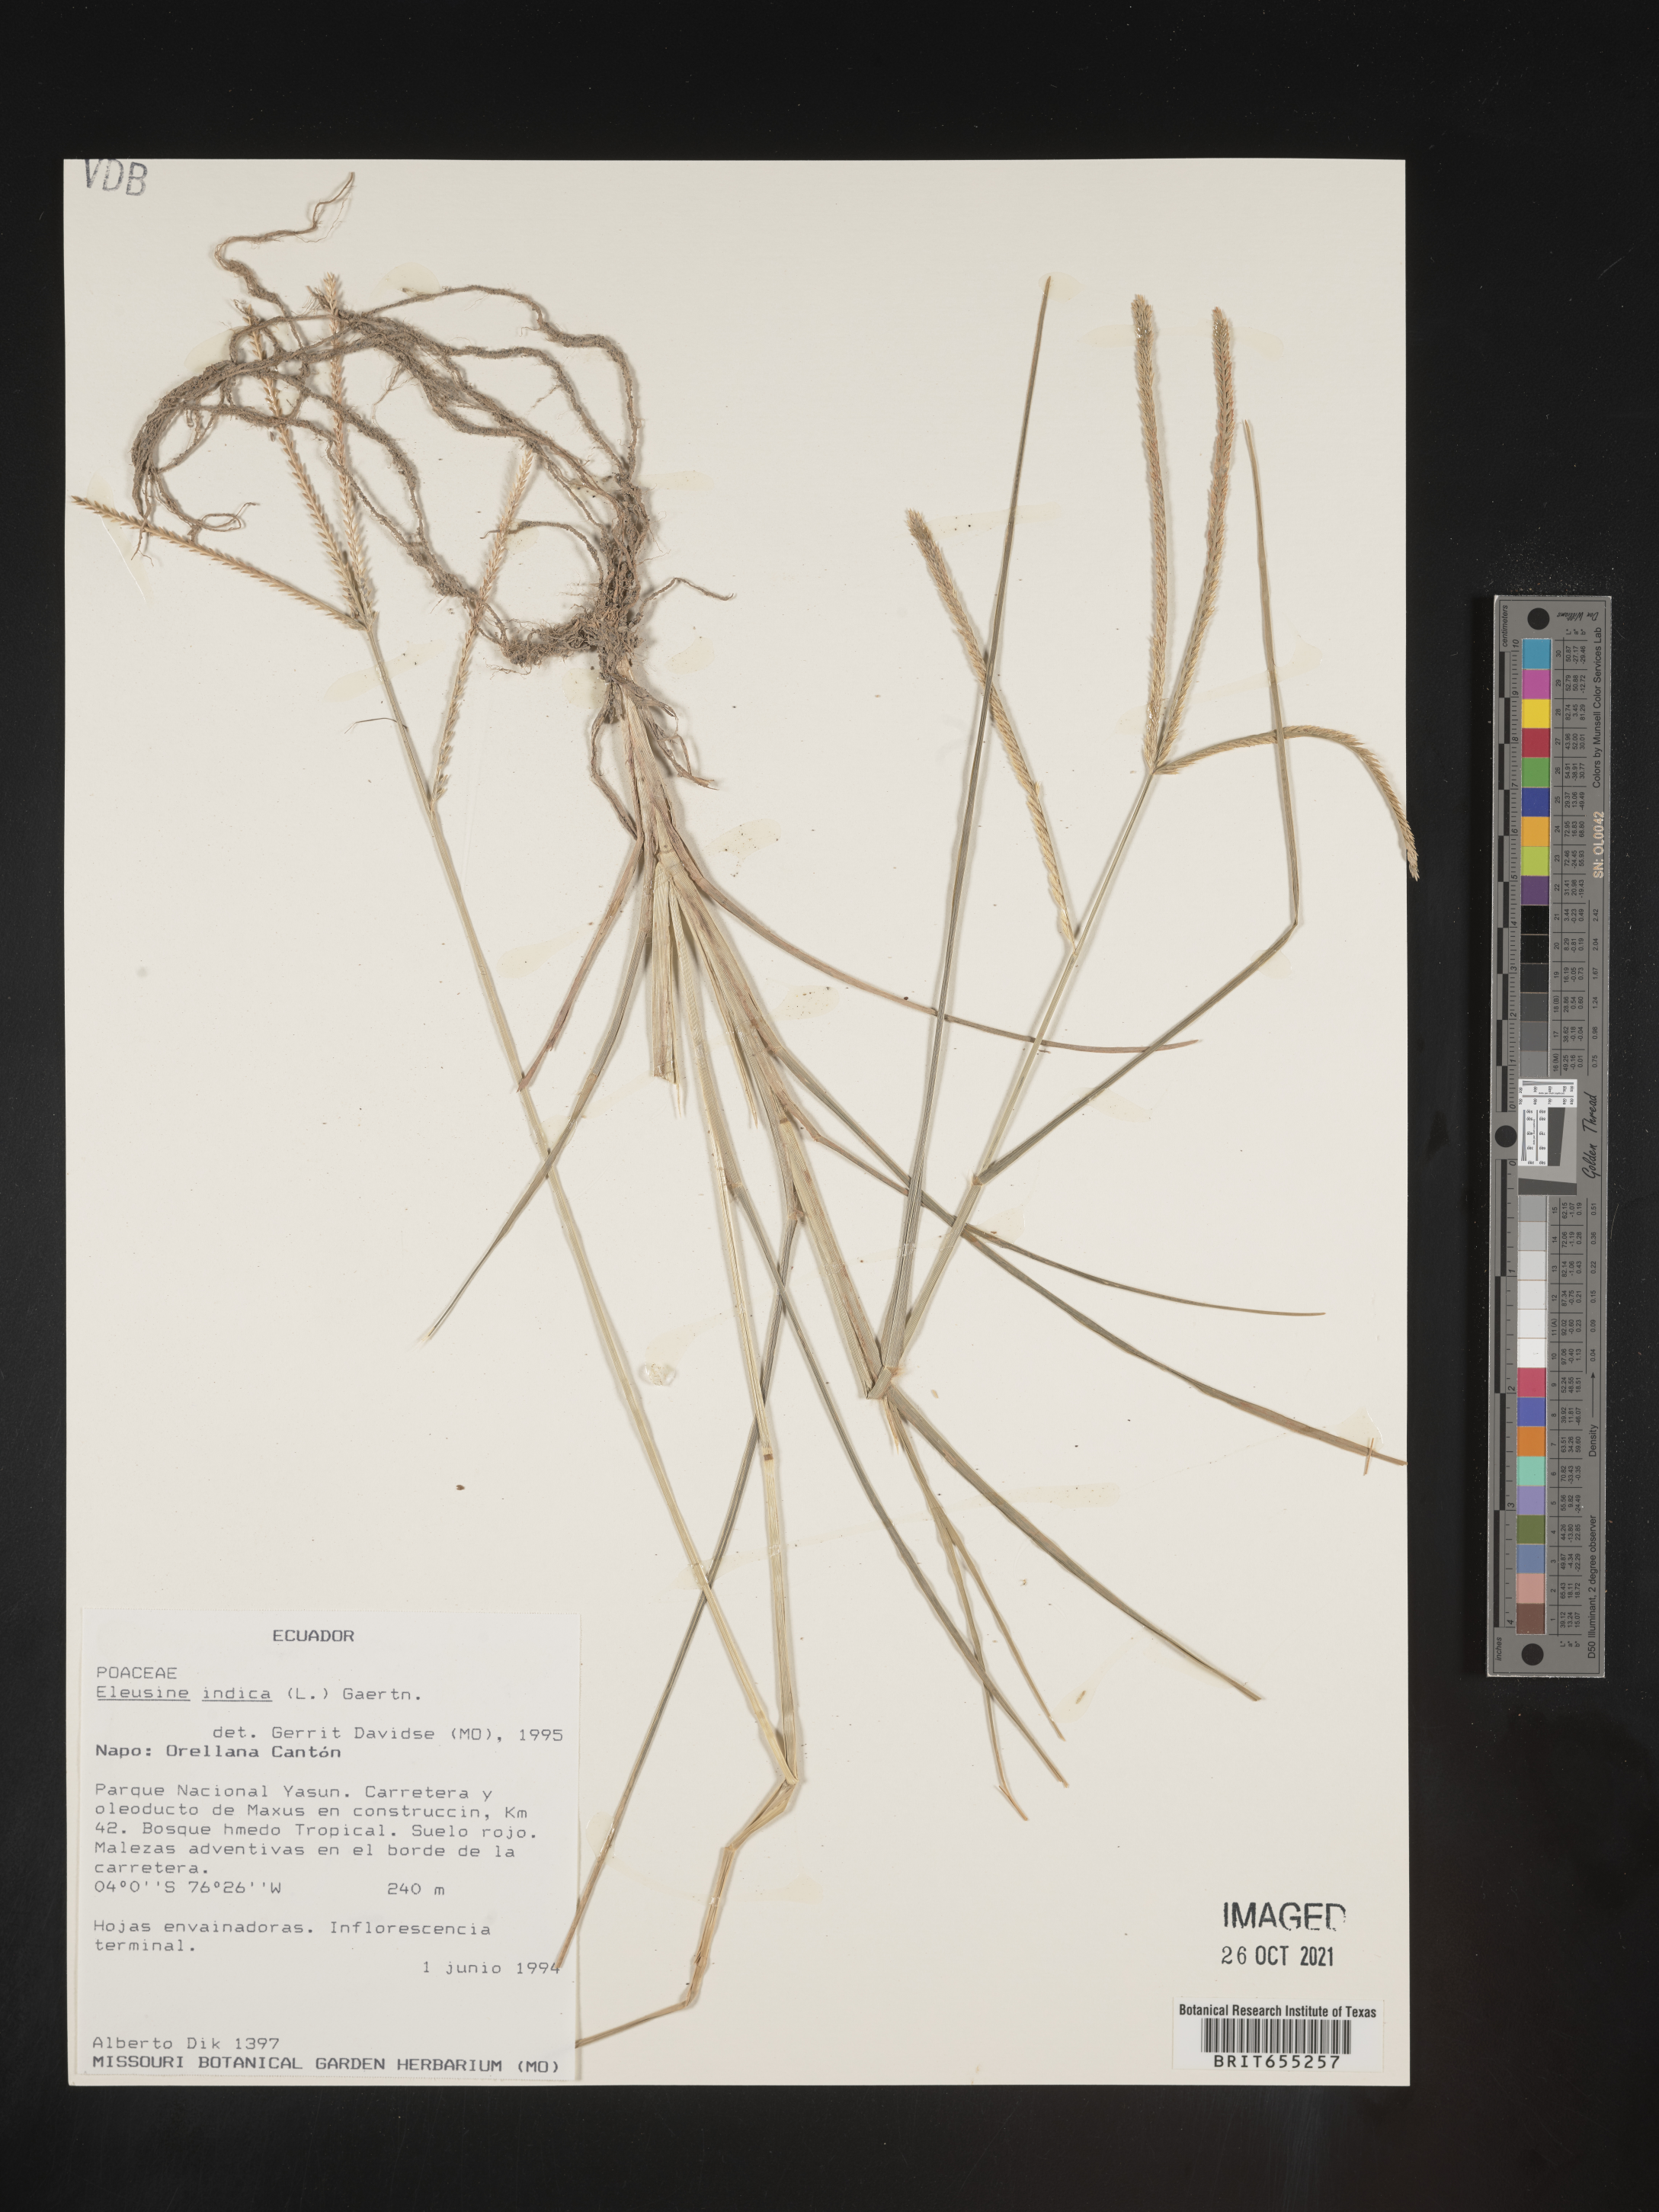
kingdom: Plantae
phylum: Tracheophyta
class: Liliopsida
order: Poales
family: Poaceae
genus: Eleusine
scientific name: Eleusine
